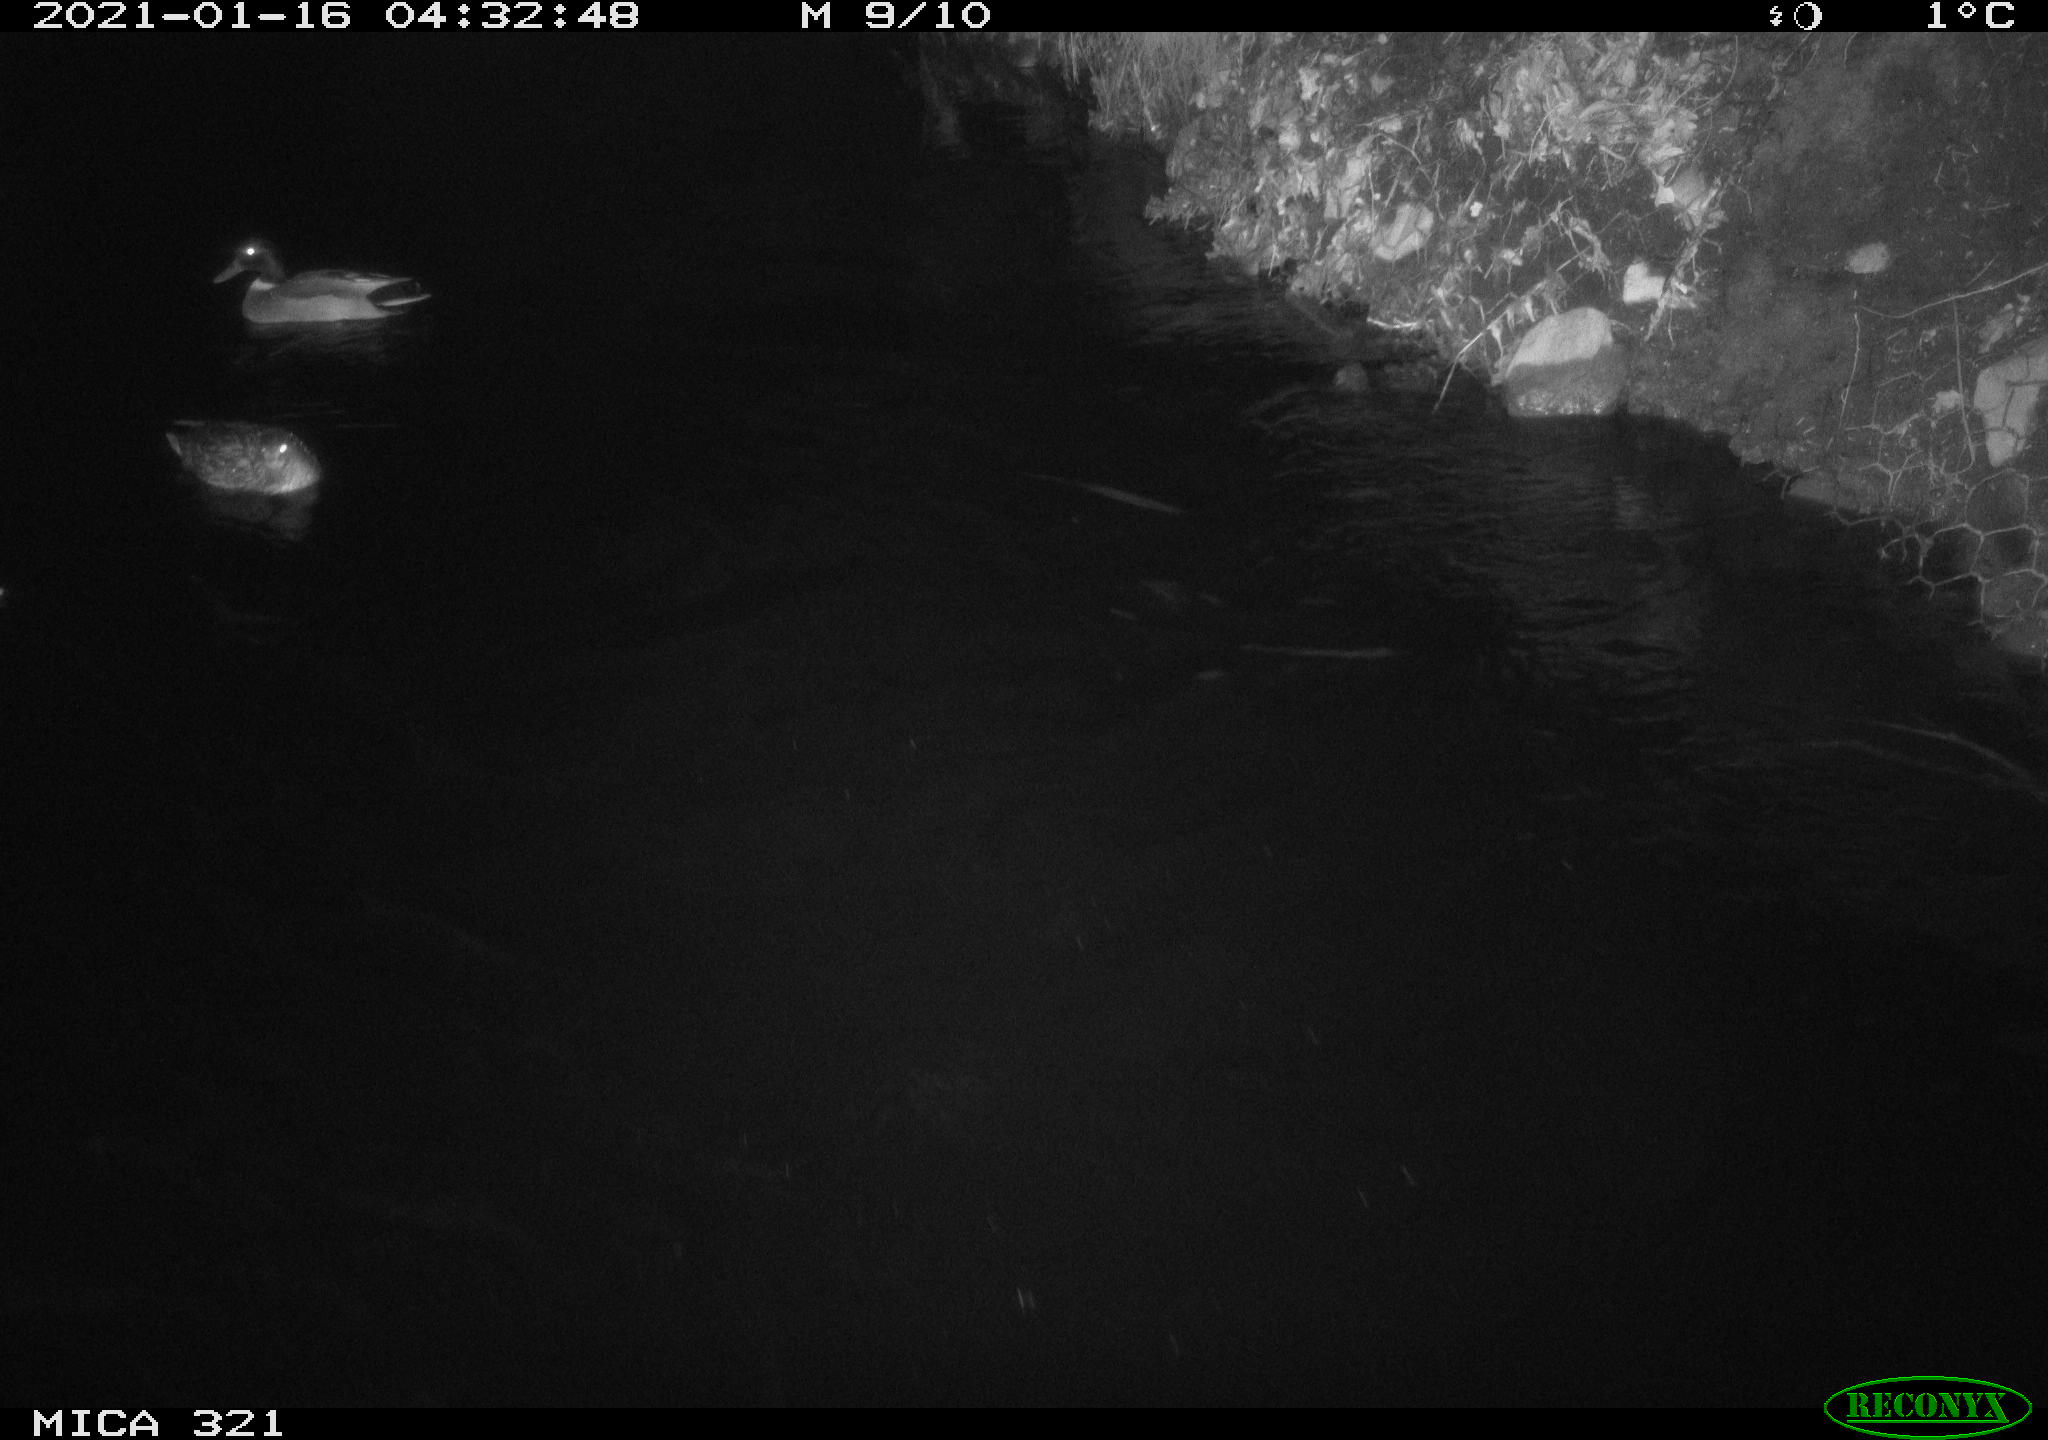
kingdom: Animalia
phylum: Chordata
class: Aves
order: Anseriformes
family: Anatidae
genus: Anas
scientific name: Anas platyrhynchos
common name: Mallard
